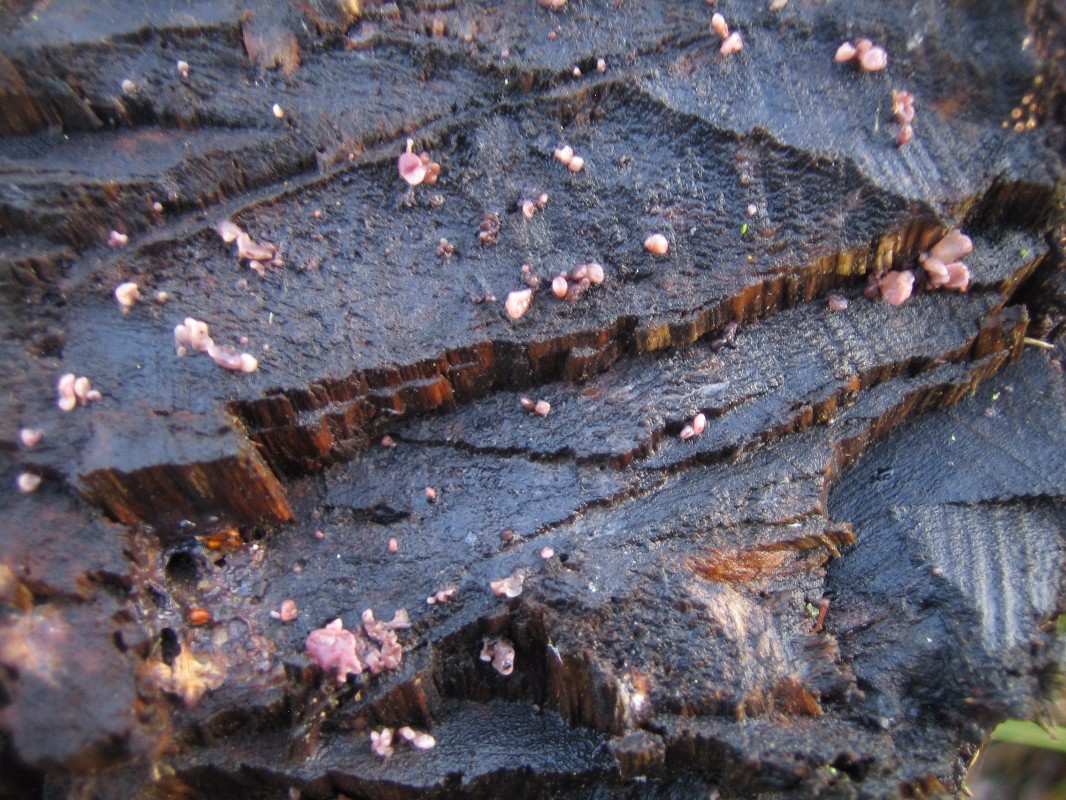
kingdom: Fungi
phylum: Ascomycota
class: Leotiomycetes
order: Helotiales
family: Gelatinodiscaceae
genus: Ascocoryne
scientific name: Ascocoryne
